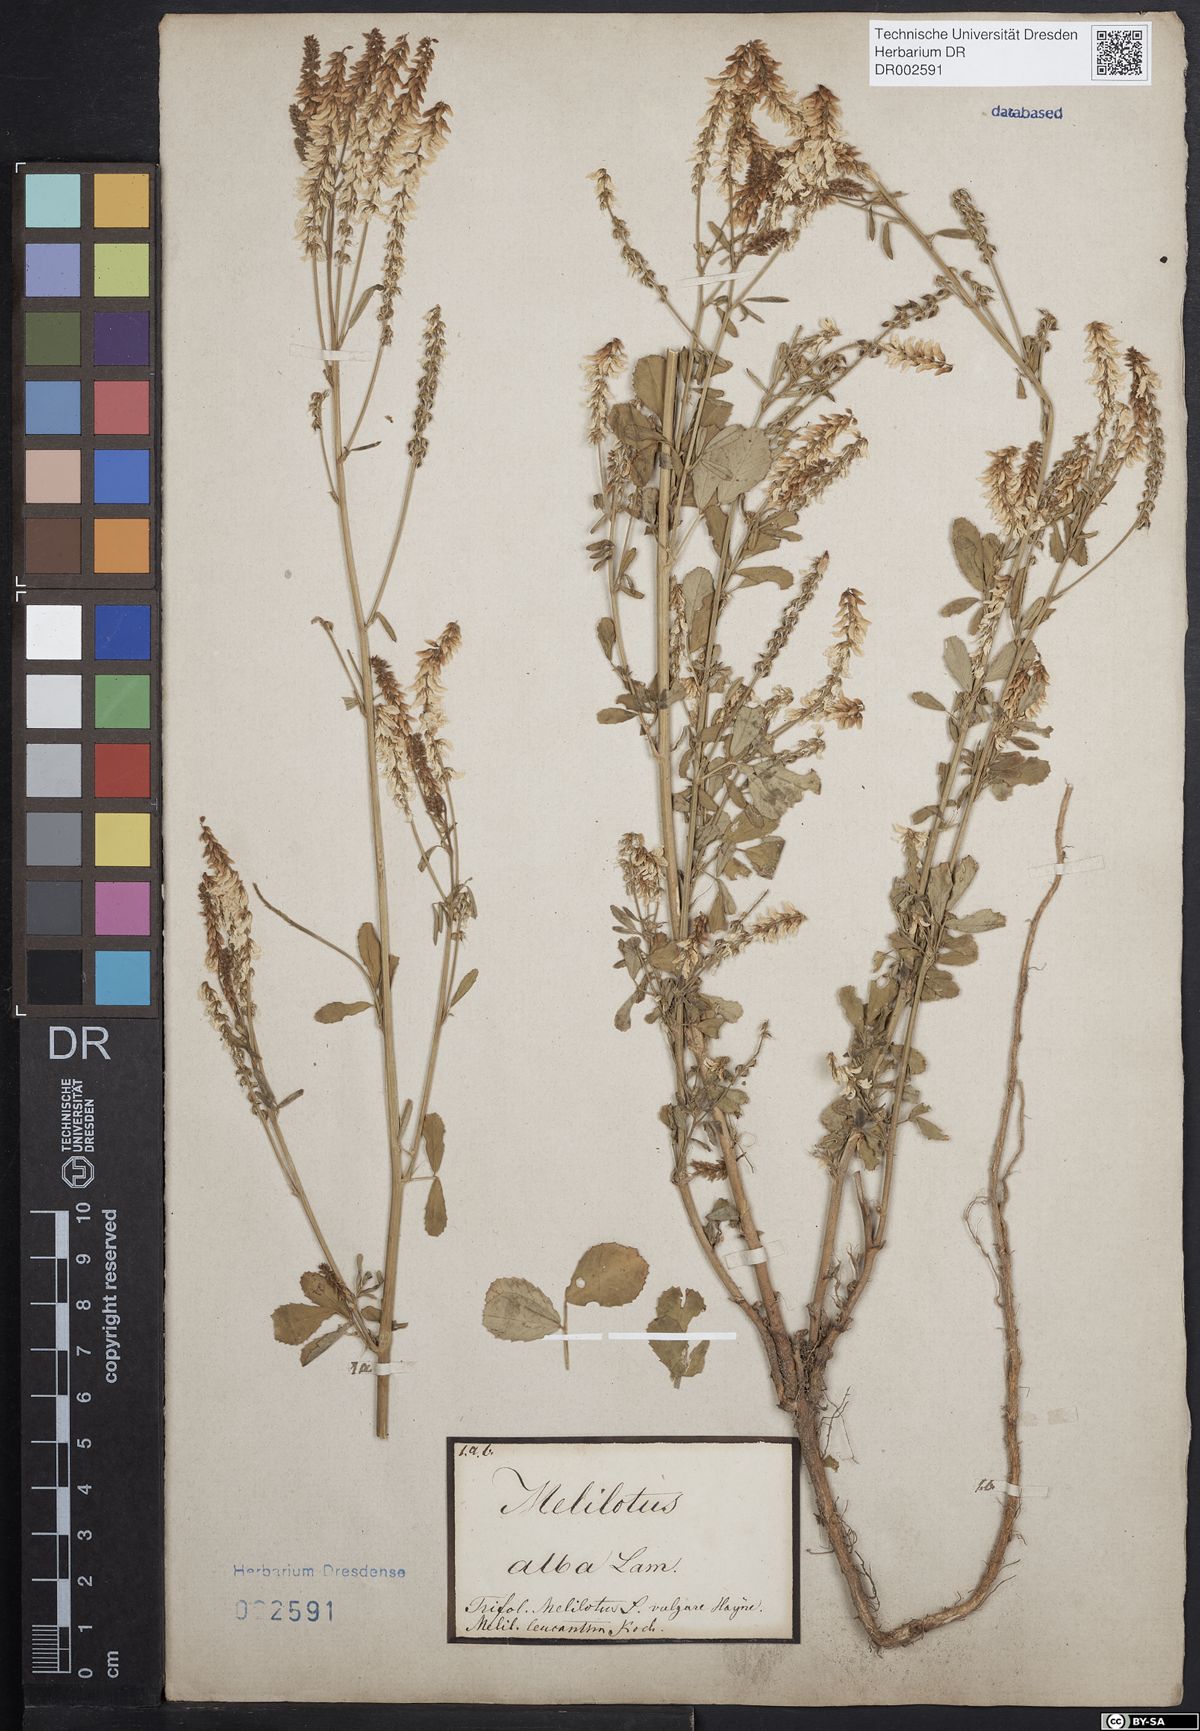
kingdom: Plantae
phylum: Tracheophyta
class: Magnoliopsida
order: Fabales
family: Fabaceae
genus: Melilotus
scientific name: Melilotus albus
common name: White melilot
